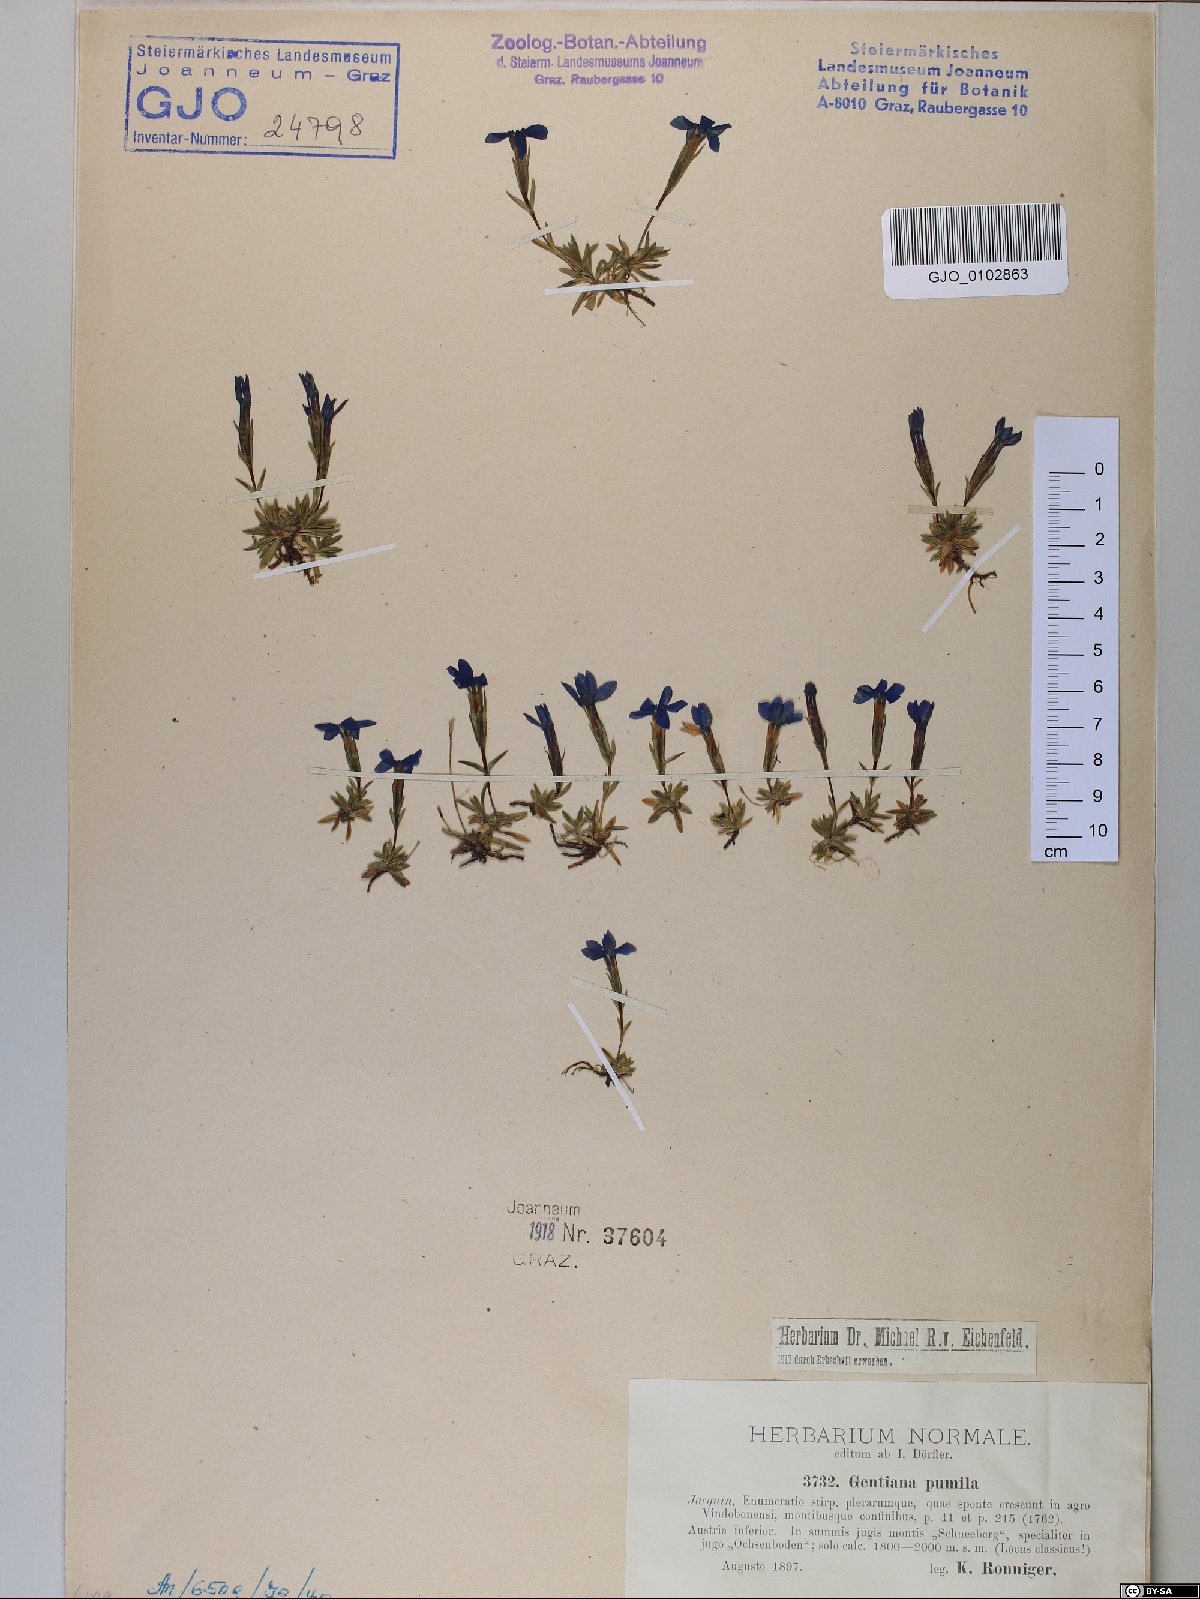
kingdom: Plantae
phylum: Tracheophyta
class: Magnoliopsida
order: Gentianales
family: Gentianaceae
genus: Gentiana
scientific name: Gentiana pumila
